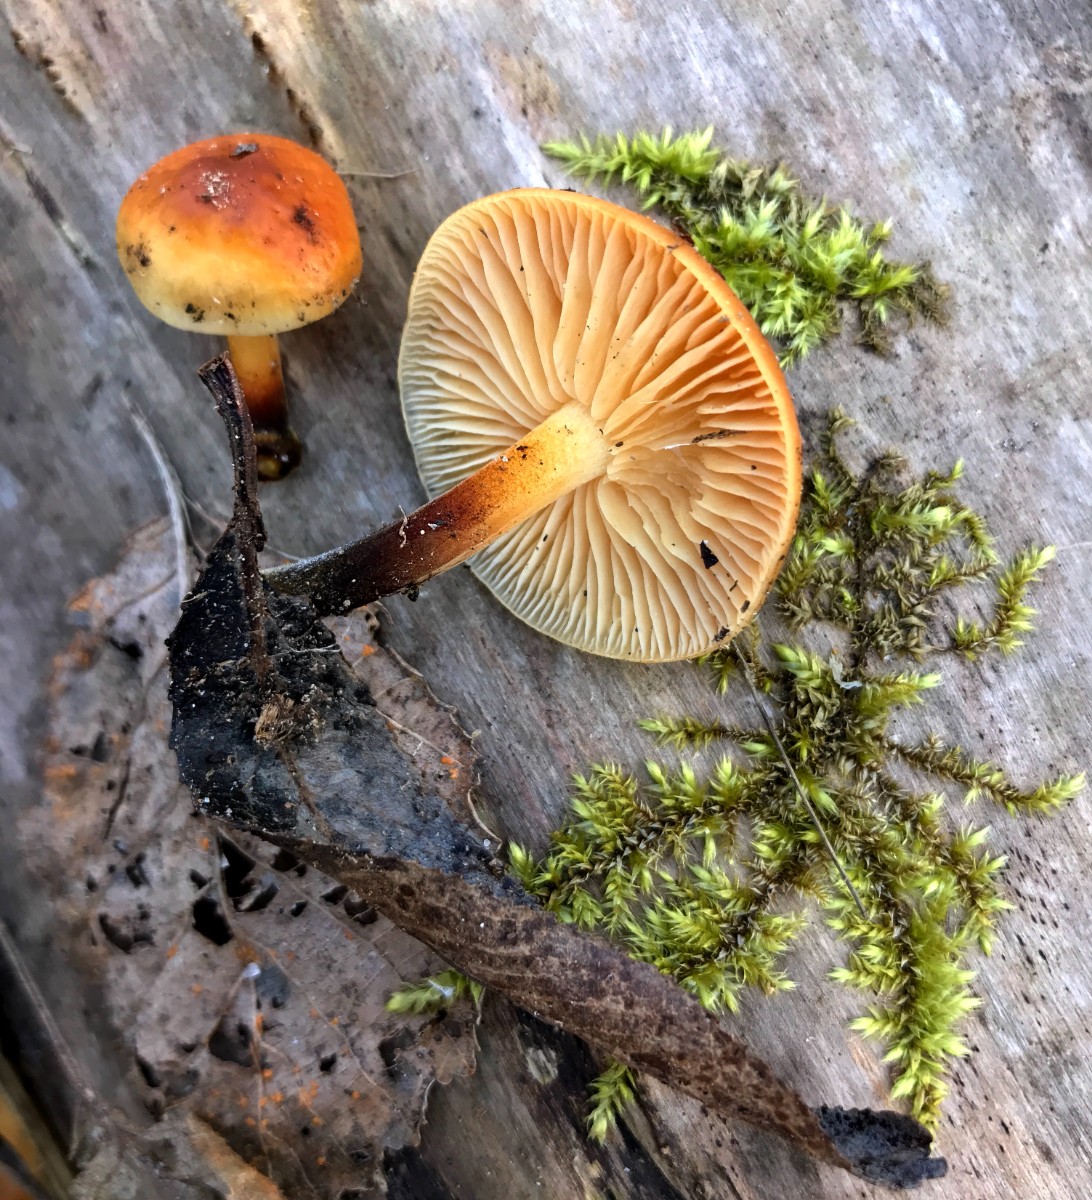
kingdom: Fungi
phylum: Basidiomycota
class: Agaricomycetes
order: Agaricales
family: Physalacriaceae
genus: Flammulina
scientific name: Flammulina velutipes
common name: gul fløjlsfod
